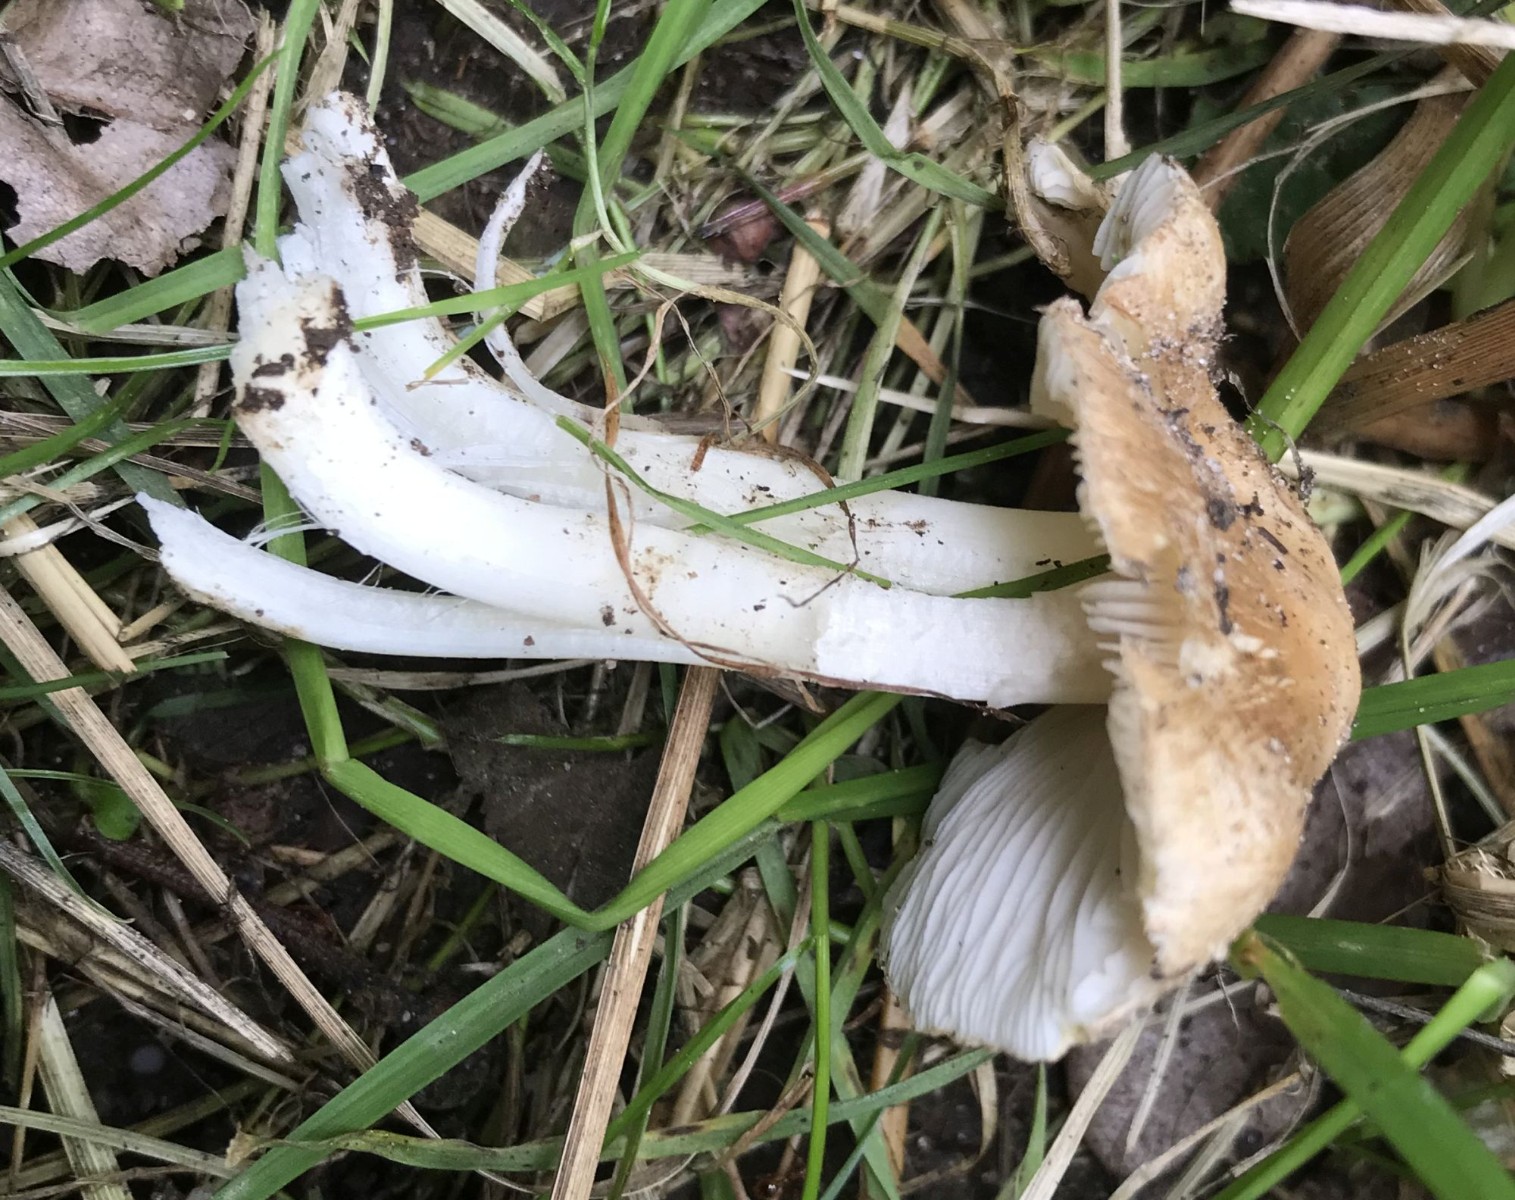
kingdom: Fungi
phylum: Basidiomycota
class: Agaricomycetes
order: Agaricales
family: Inocybaceae
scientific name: Inocybaceae
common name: trævlhatfamilien
